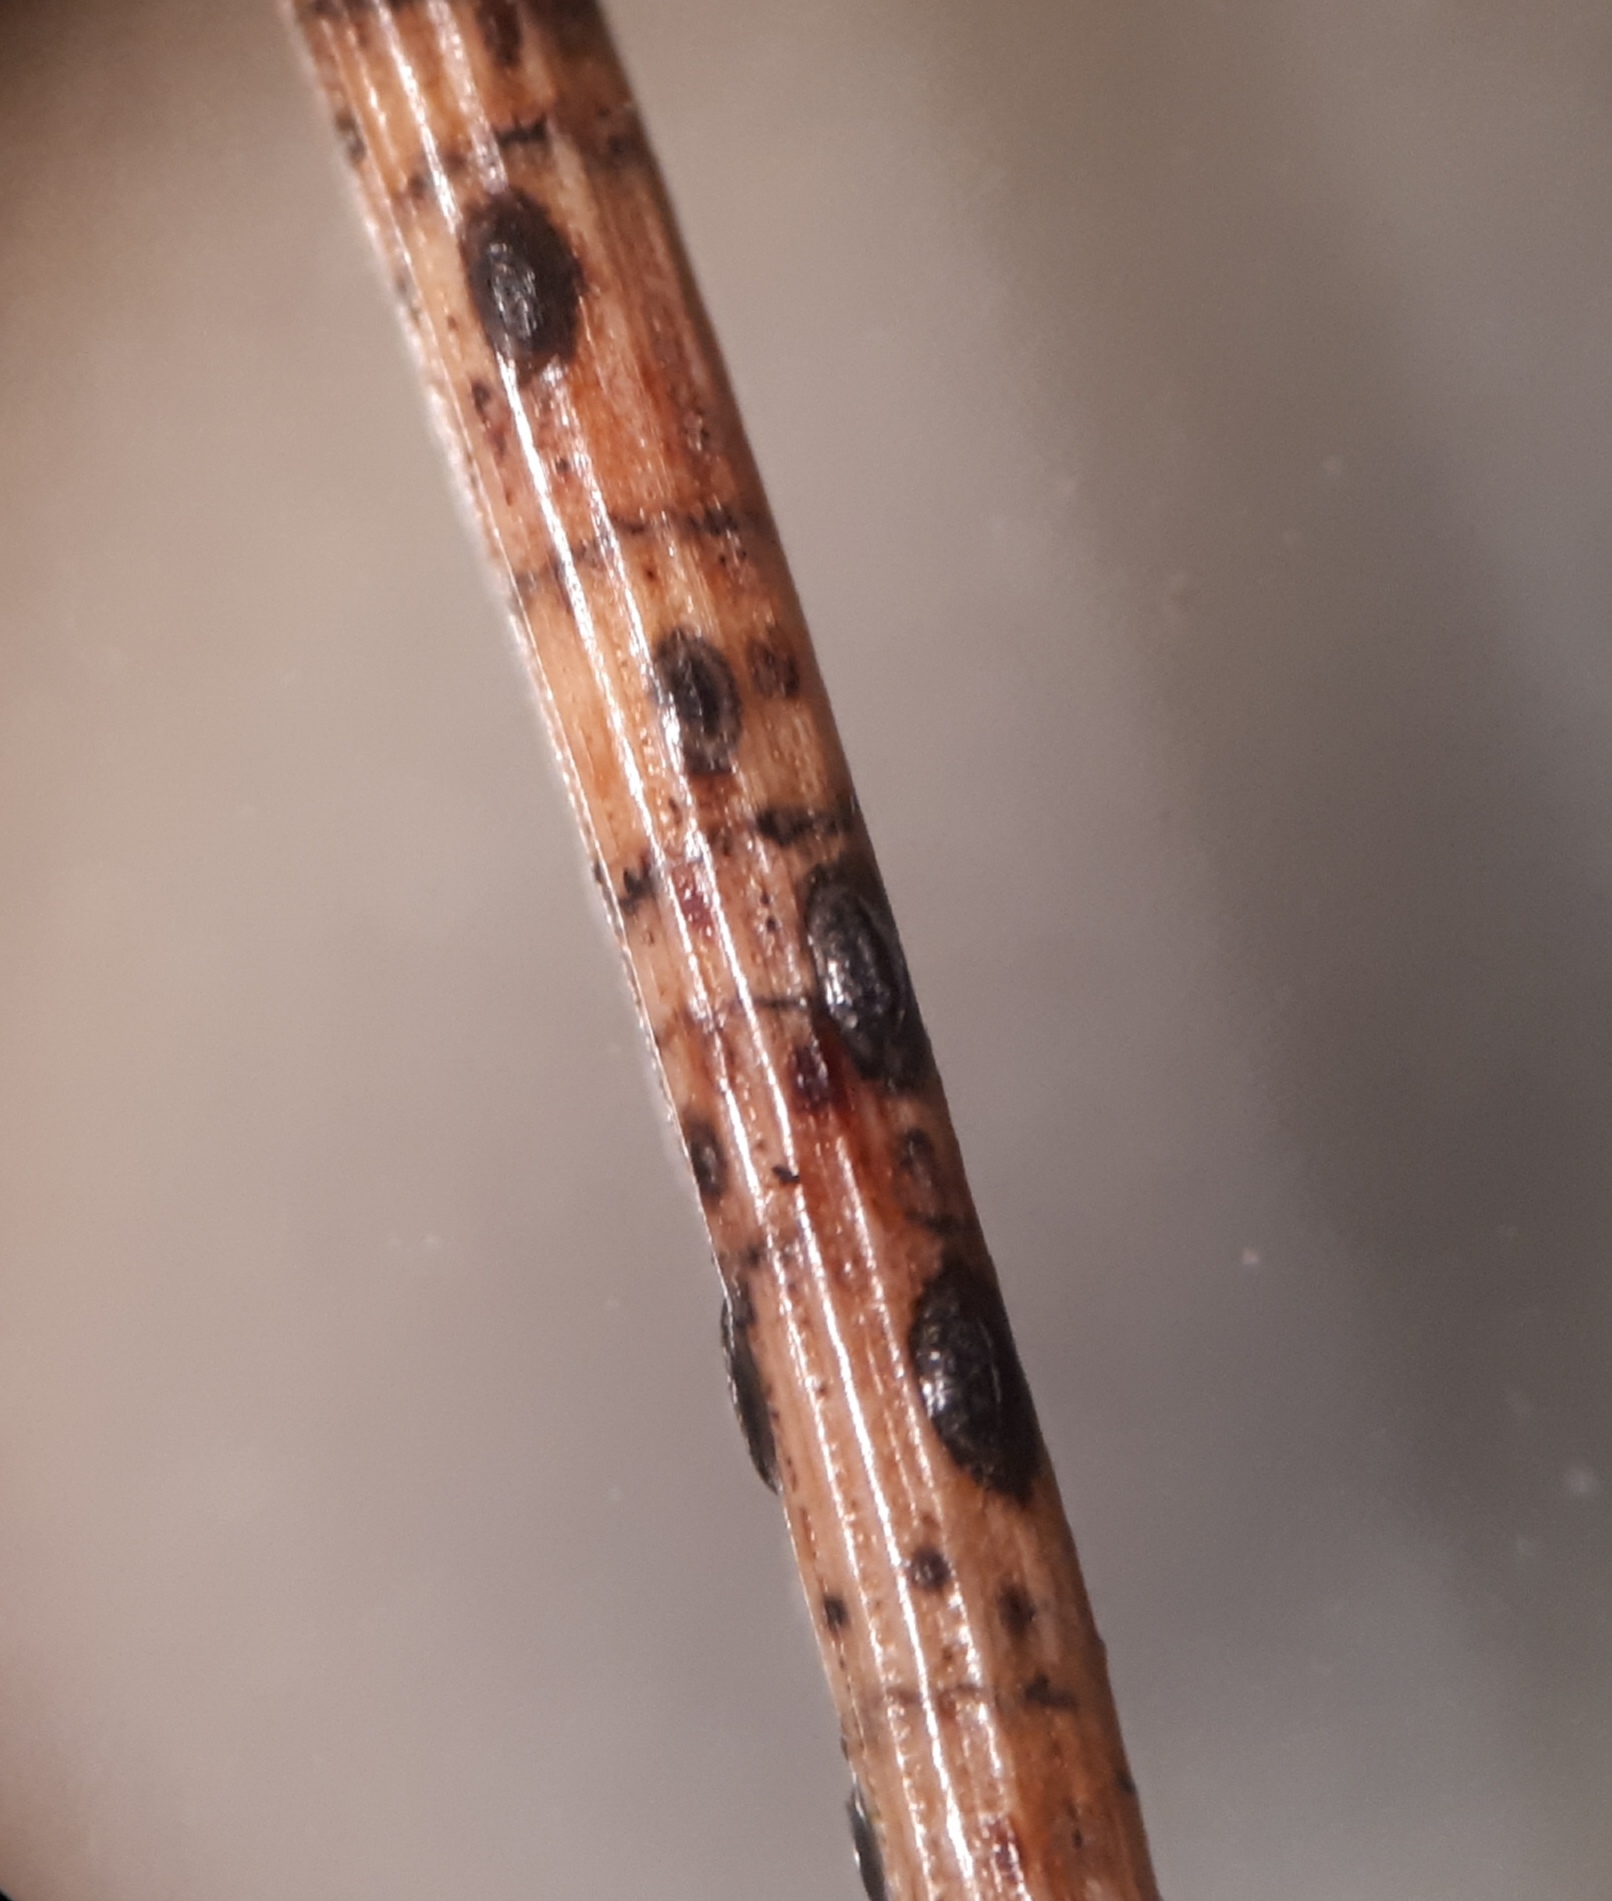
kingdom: Fungi
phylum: Ascomycota
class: Leotiomycetes
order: Rhytismatales
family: Rhytismataceae
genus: Lophodermium
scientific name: Lophodermium pinastri
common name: fyrre-fureplet
